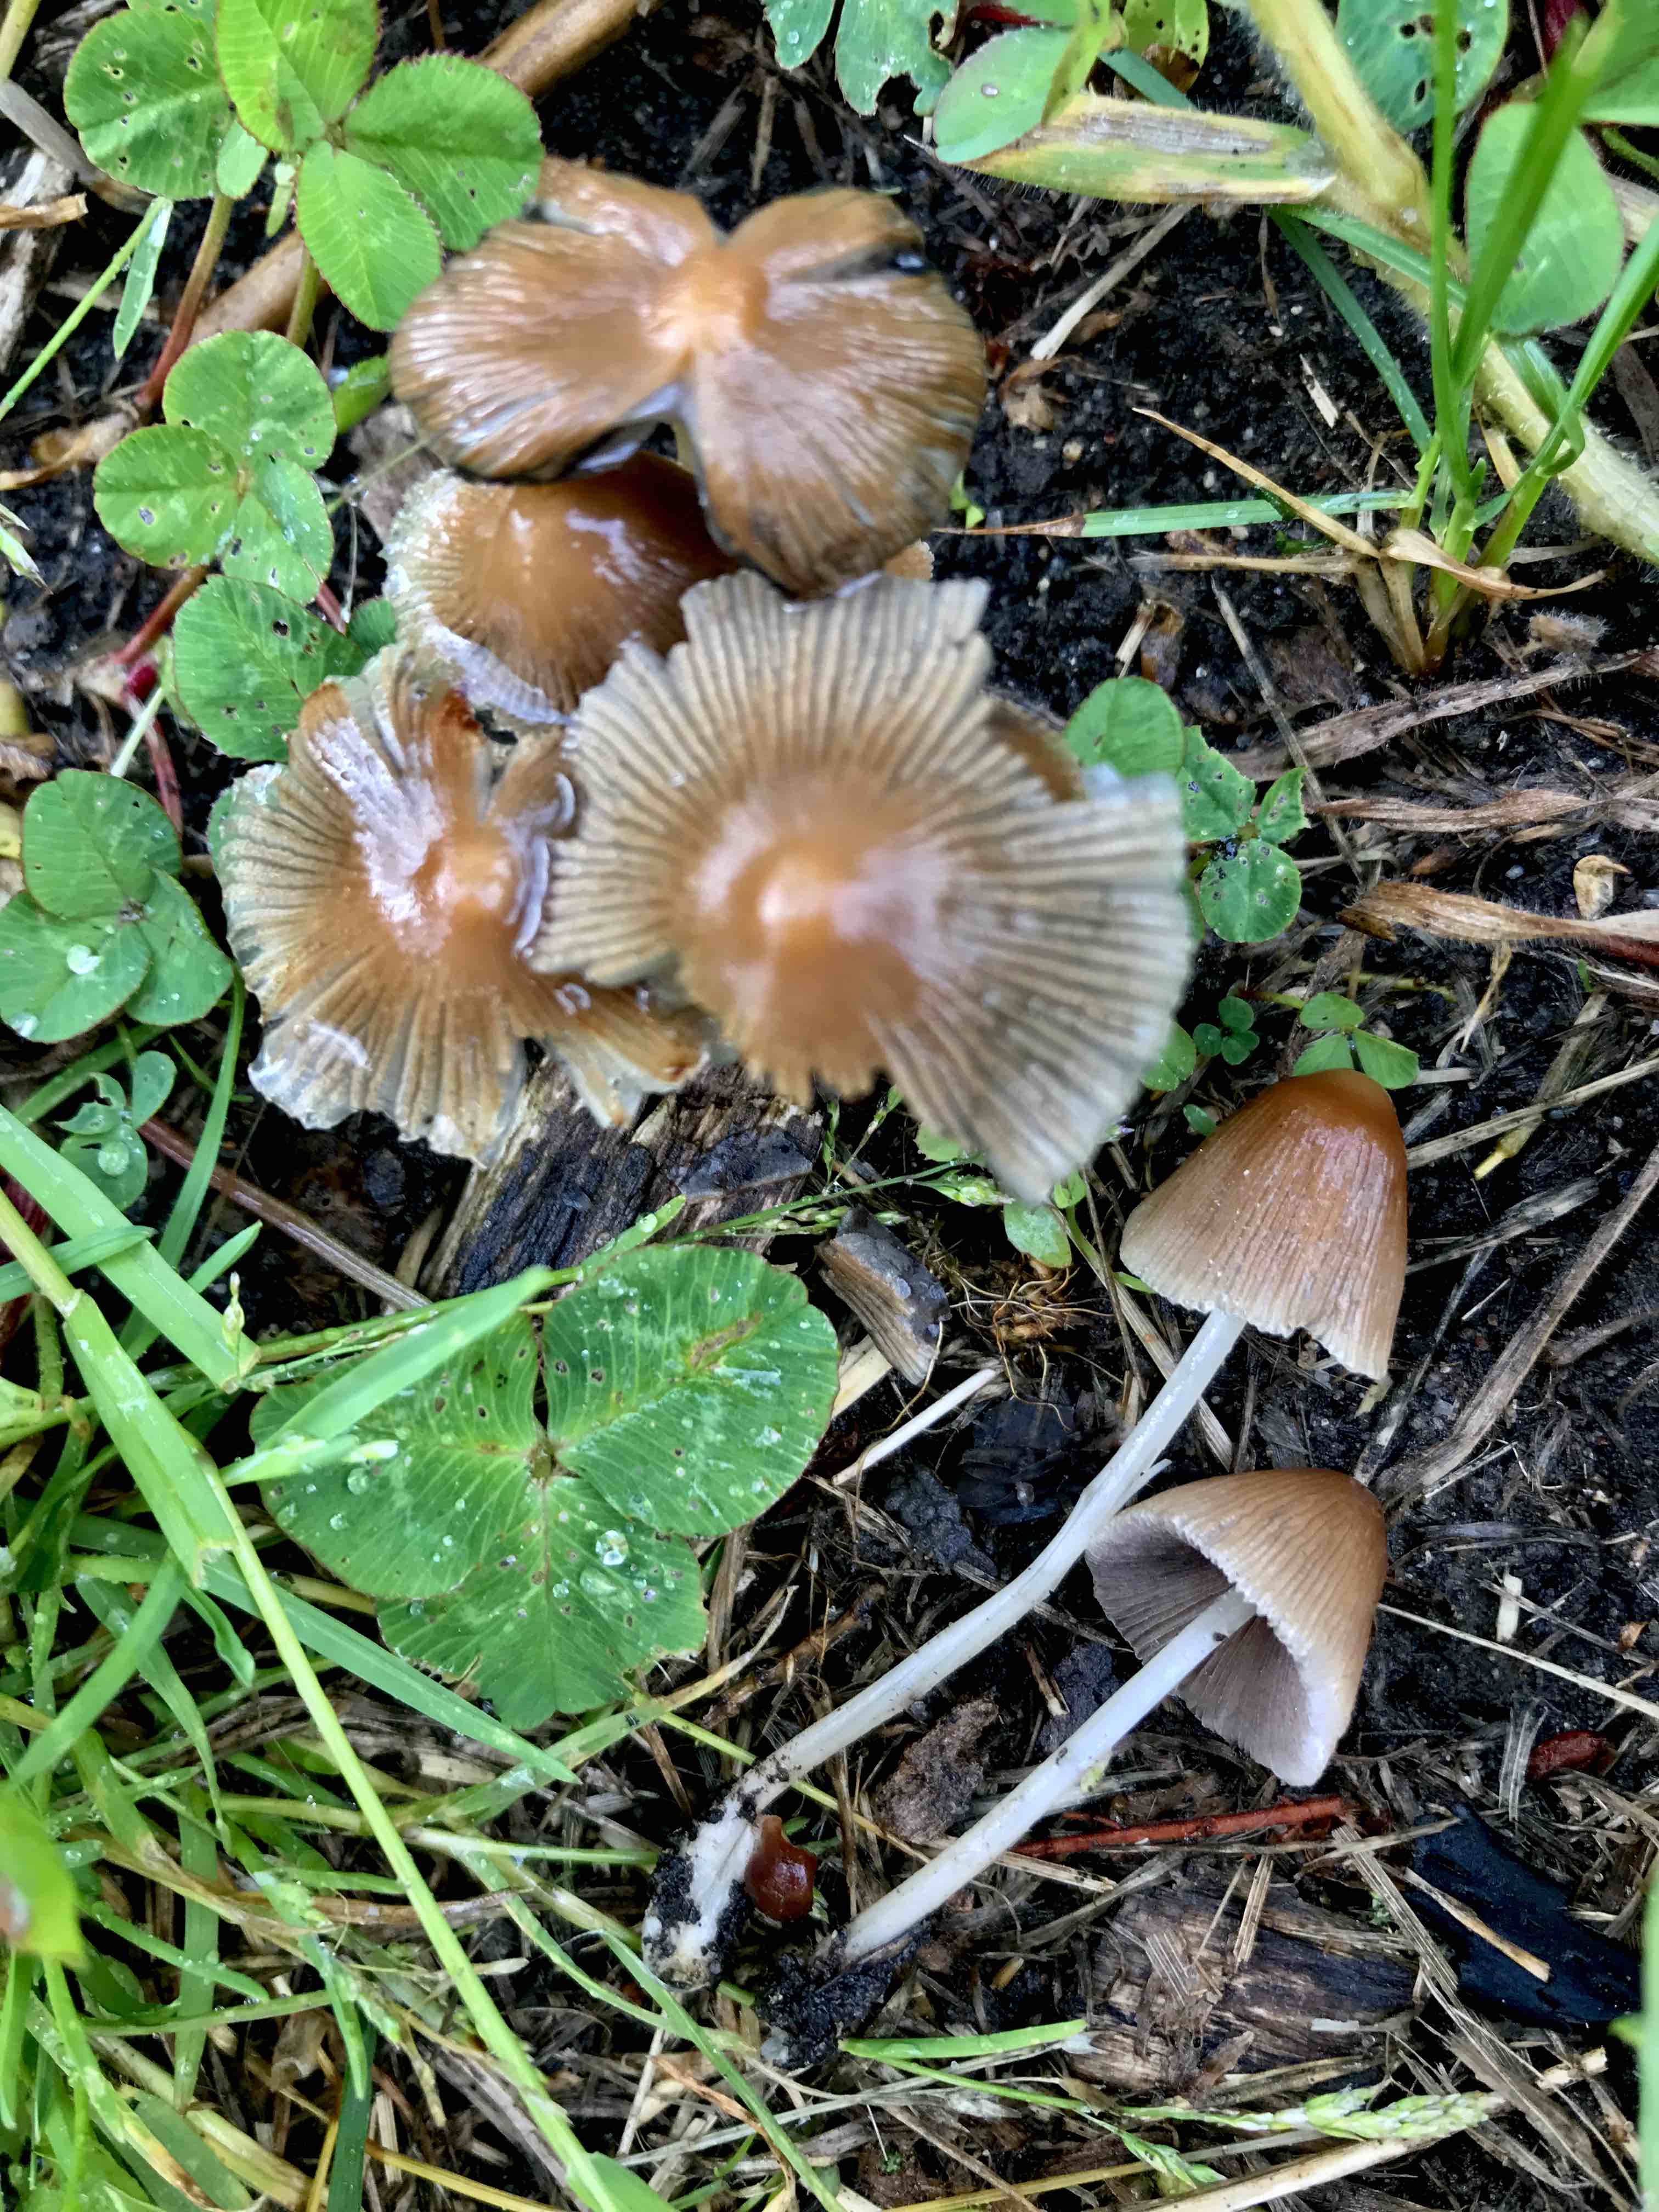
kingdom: Fungi
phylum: Basidiomycota
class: Agaricomycetes
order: Agaricales
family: Psathyrellaceae
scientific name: Psathyrellaceae
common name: mørkhatfamilien
